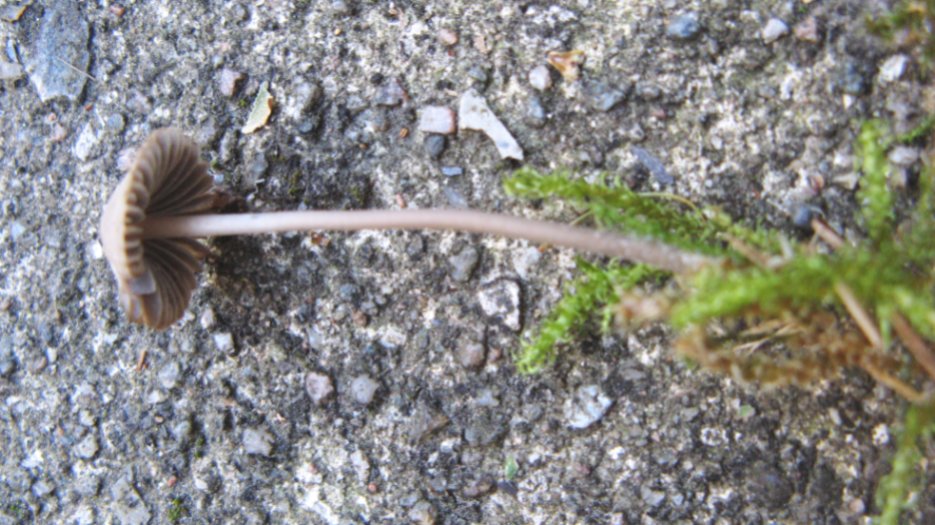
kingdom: Fungi
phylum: Basidiomycota
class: Agaricomycetes
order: Agaricales
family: Mycenaceae
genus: Mycena
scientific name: Mycena aetites
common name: plæne-huesvamp
